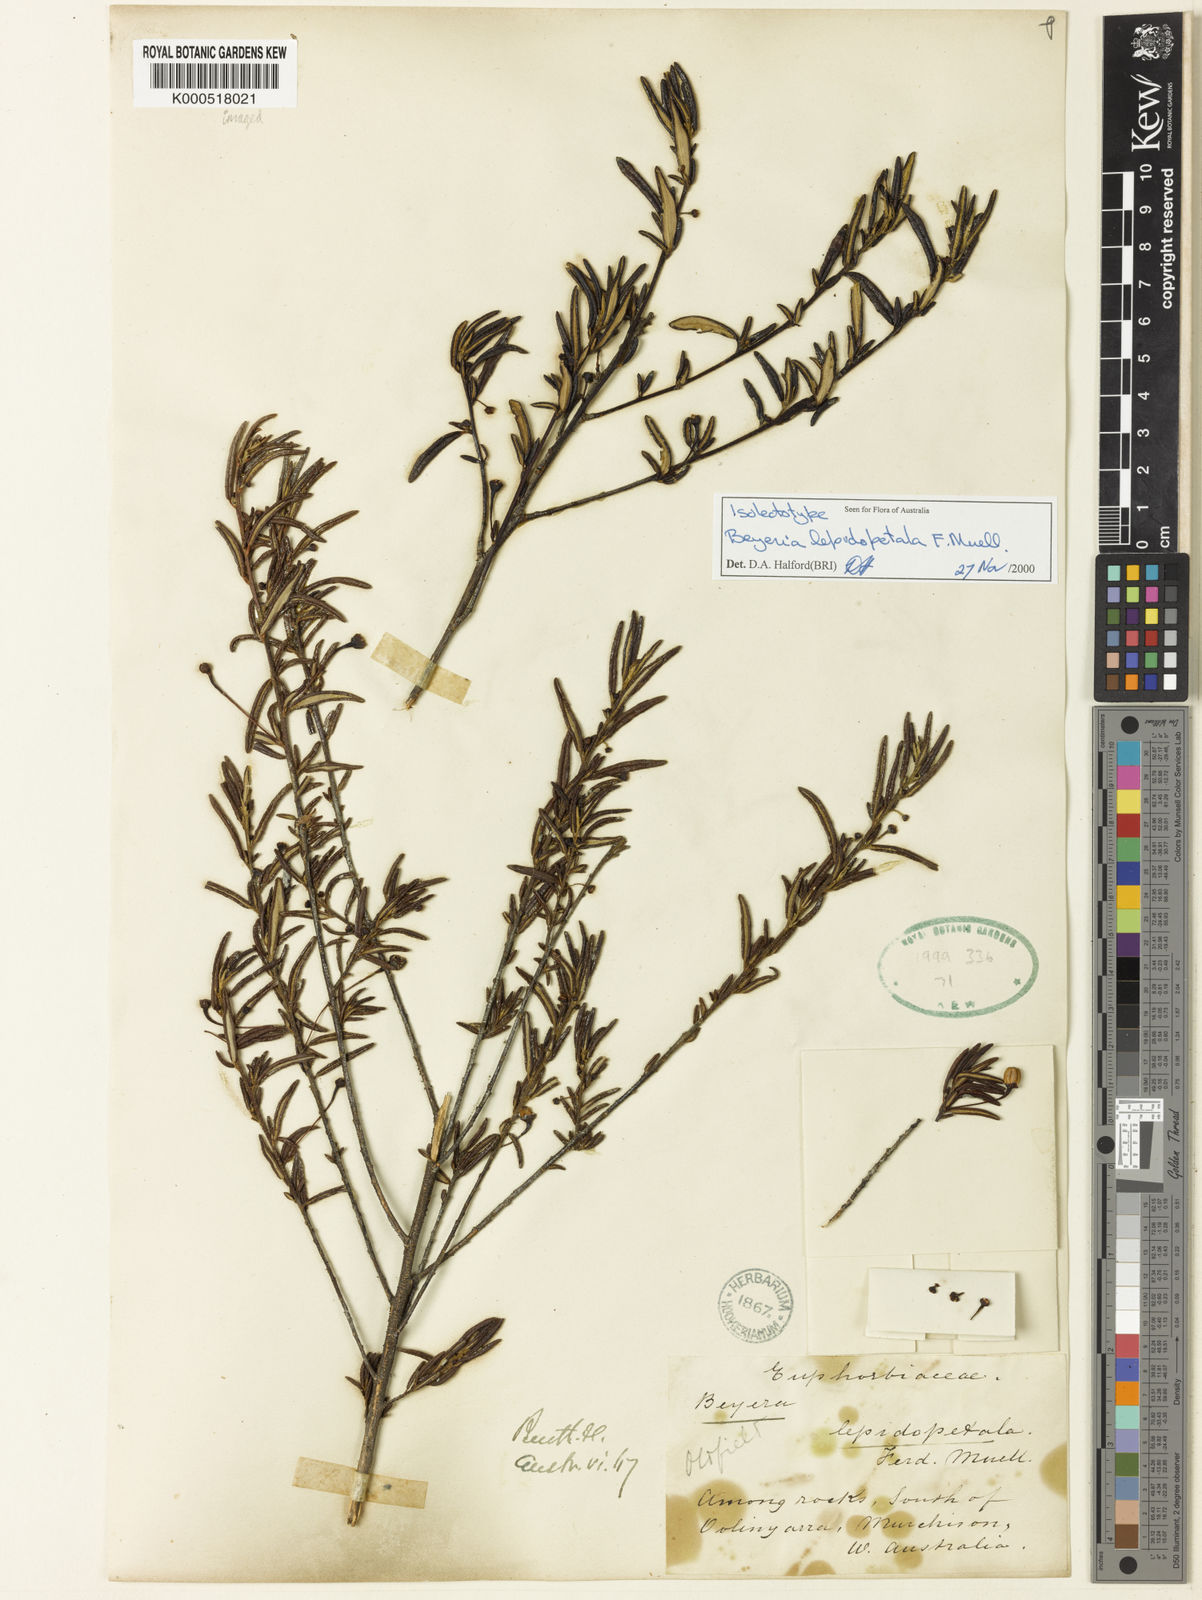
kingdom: Plantae
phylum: Tracheophyta
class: Magnoliopsida
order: Malpighiales
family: Euphorbiaceae
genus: Beyeria
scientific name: Beyeria lepidopetala
